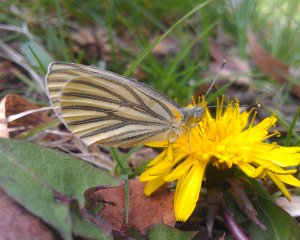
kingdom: Animalia
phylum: Arthropoda
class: Insecta
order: Lepidoptera
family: Pieridae
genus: Pieris
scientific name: Pieris oleracea
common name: Mustard White
